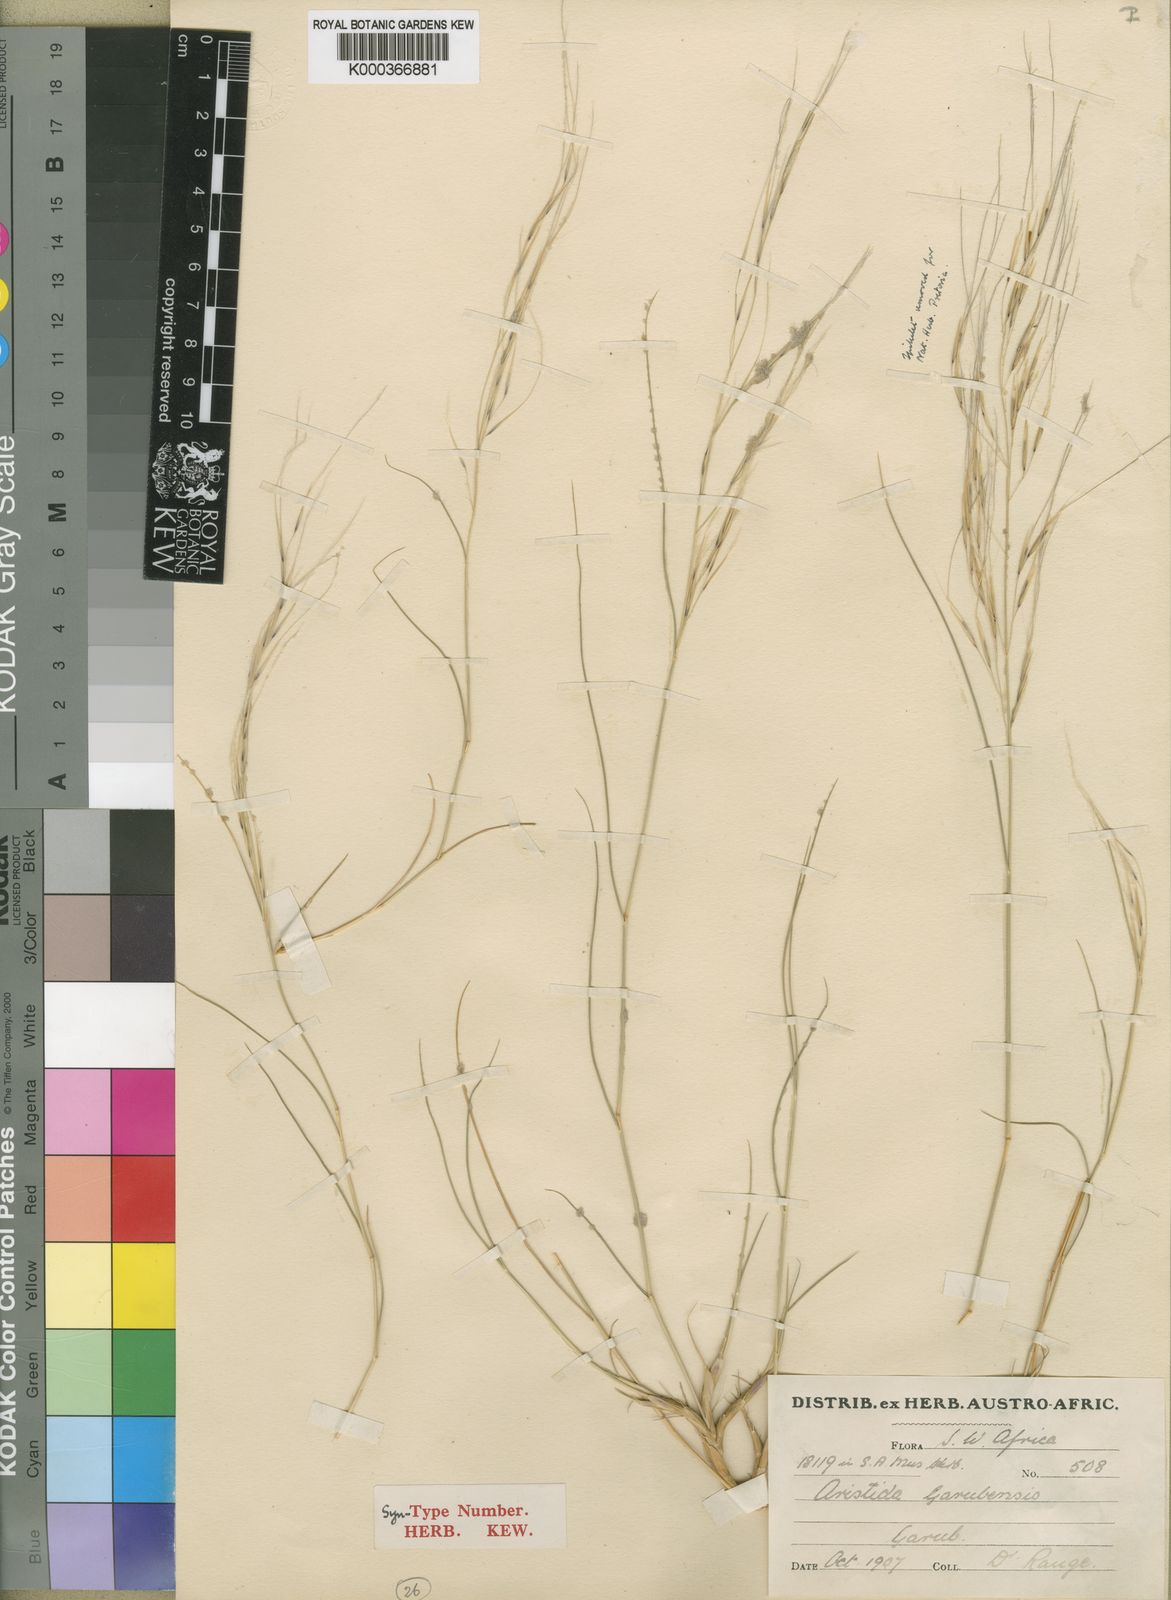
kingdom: Plantae
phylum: Tracheophyta
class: Liliopsida
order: Poales
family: Poaceae
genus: Stipagrostis
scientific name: Stipagrostis garubensis
